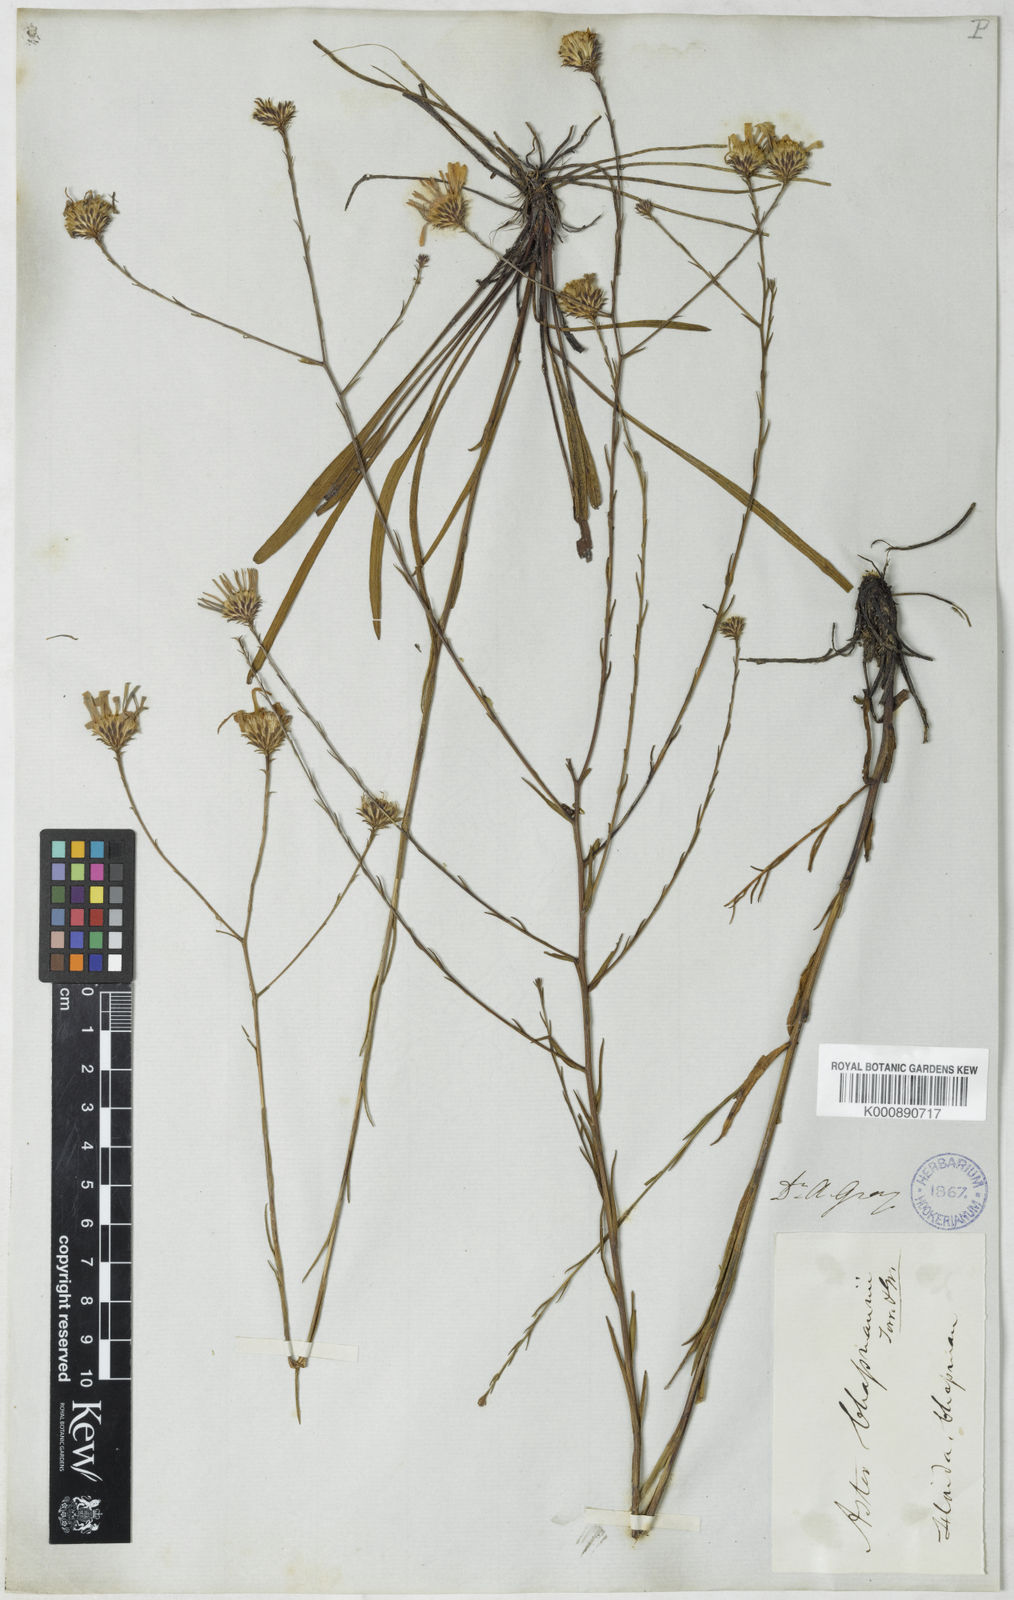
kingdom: Plantae
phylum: Tracheophyta
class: Magnoliopsida
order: Asterales
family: Asteraceae
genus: Symphyotrichum
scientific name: Symphyotrichum chapmanii
